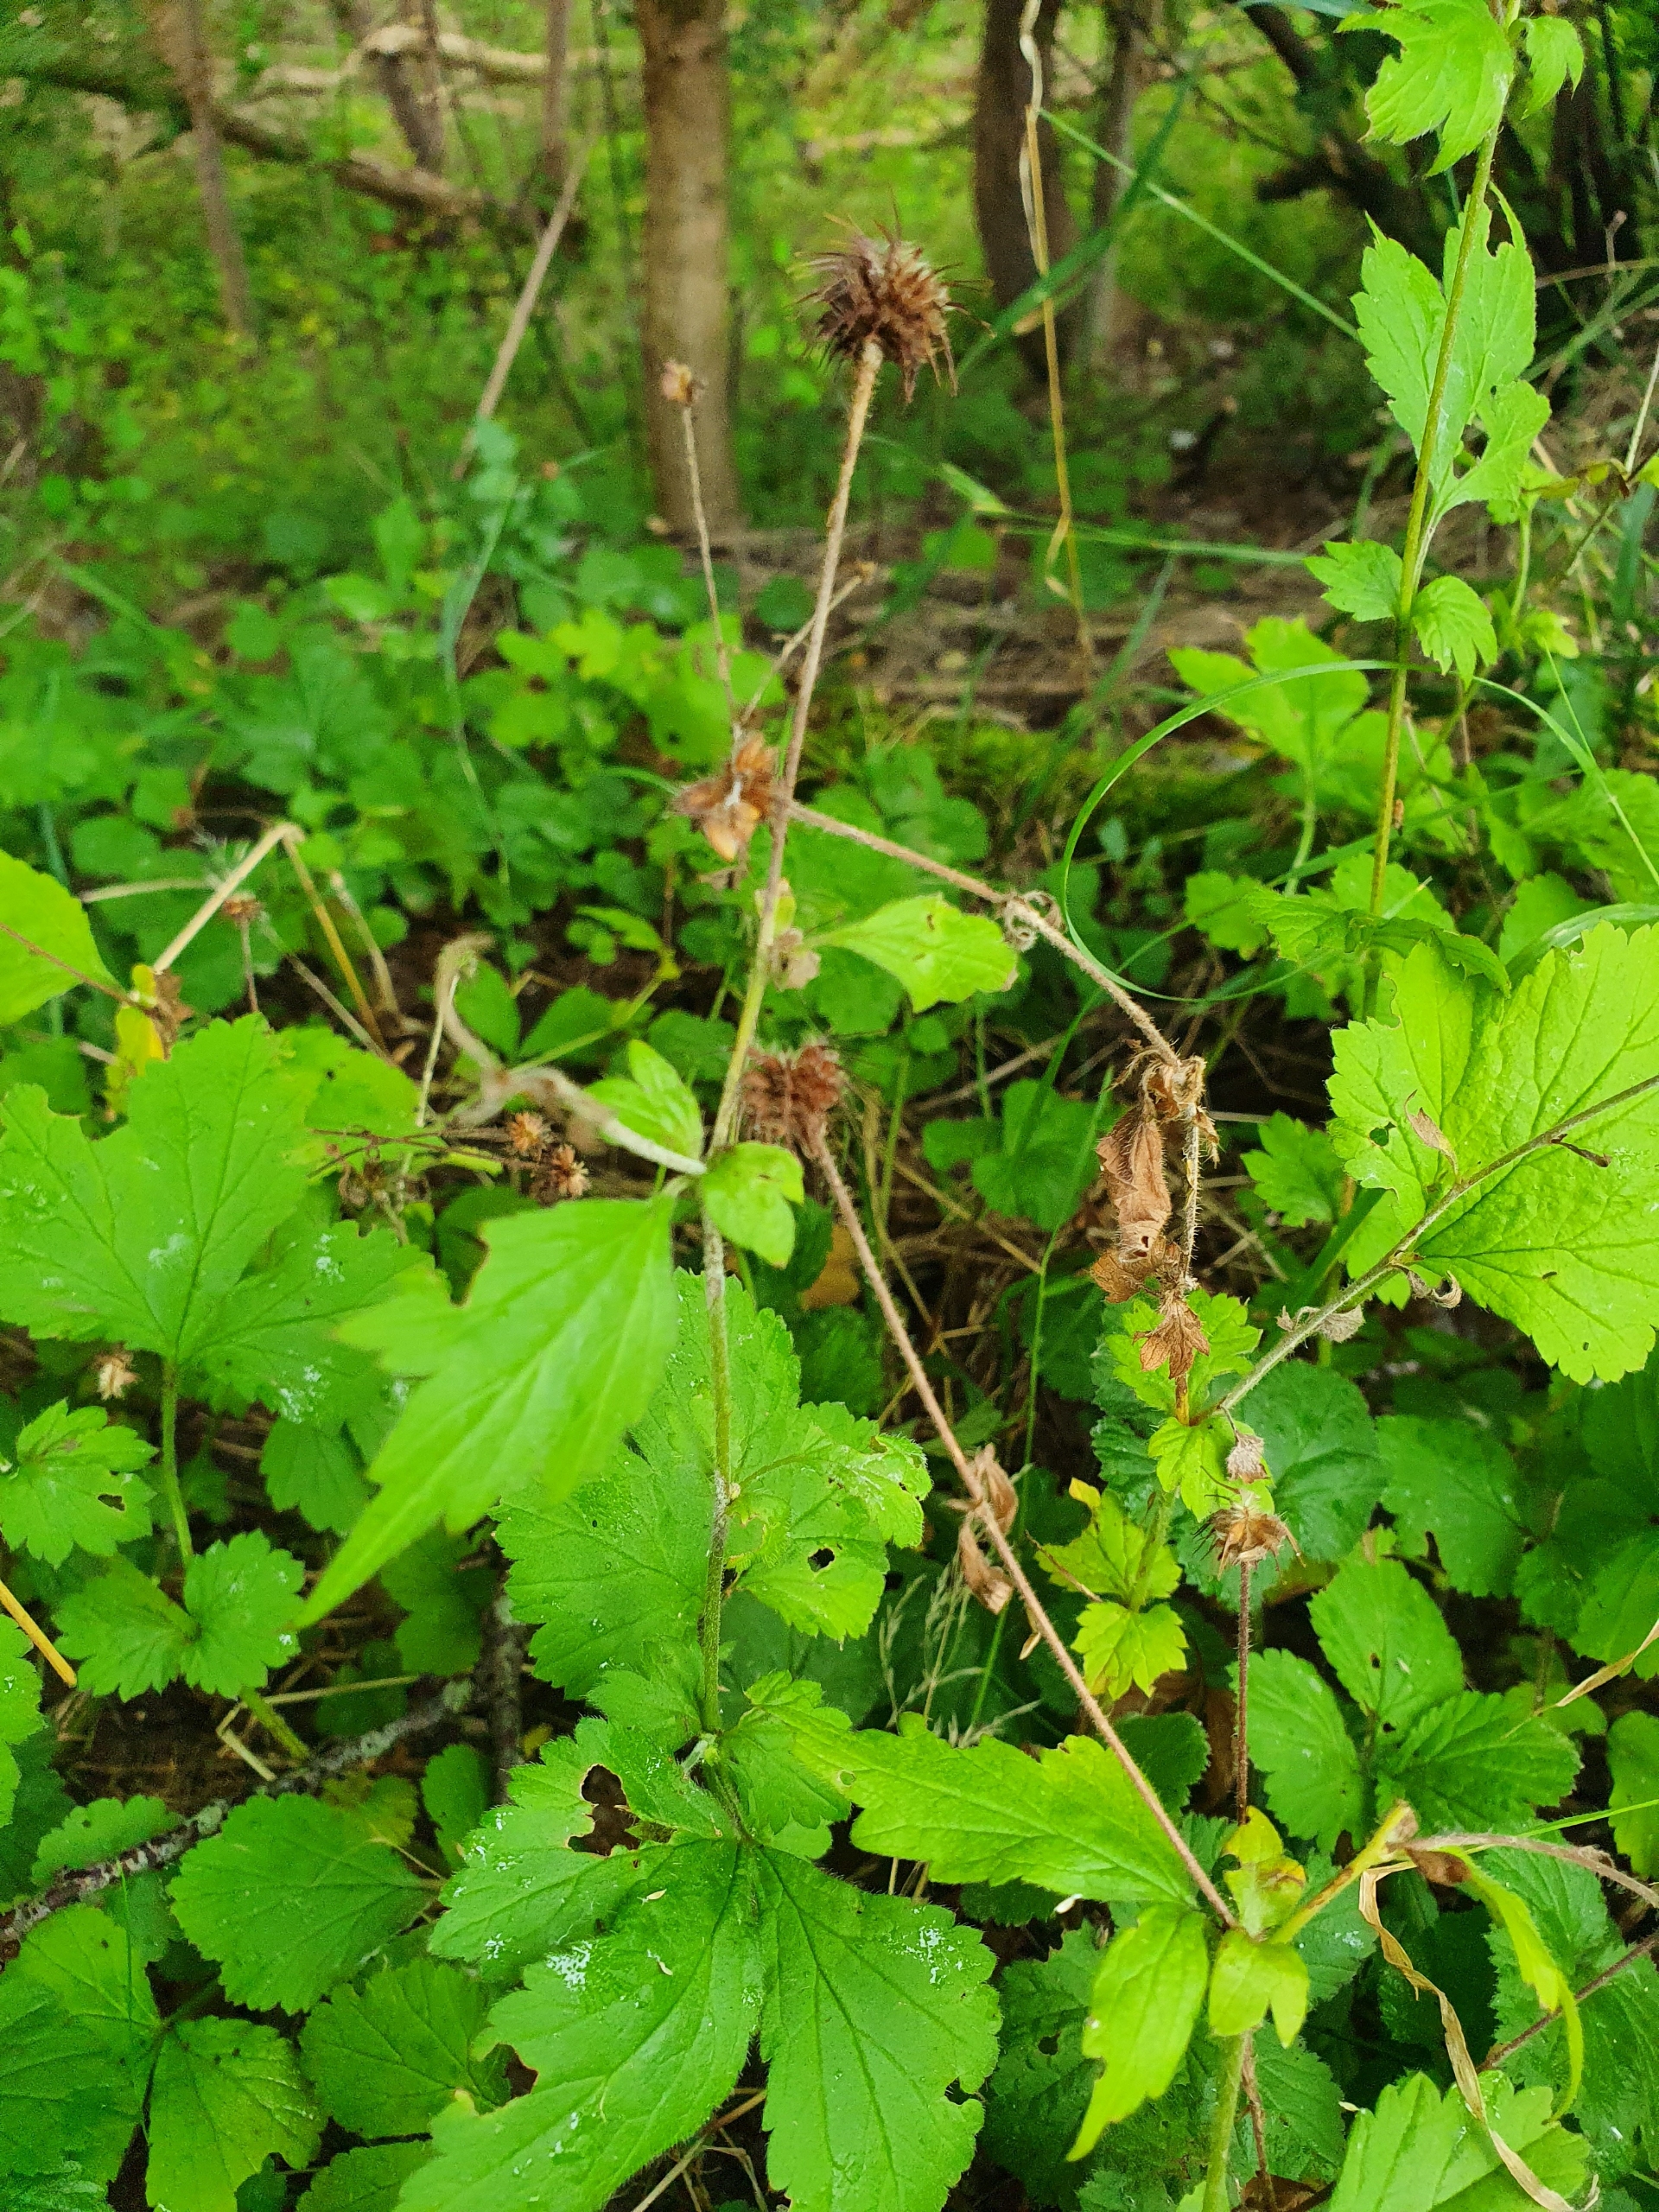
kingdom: Plantae
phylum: Tracheophyta
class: Magnoliopsida
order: Rosales
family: Rosaceae
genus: Geum
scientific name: Geum urbanum
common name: Feber-nellikerod
